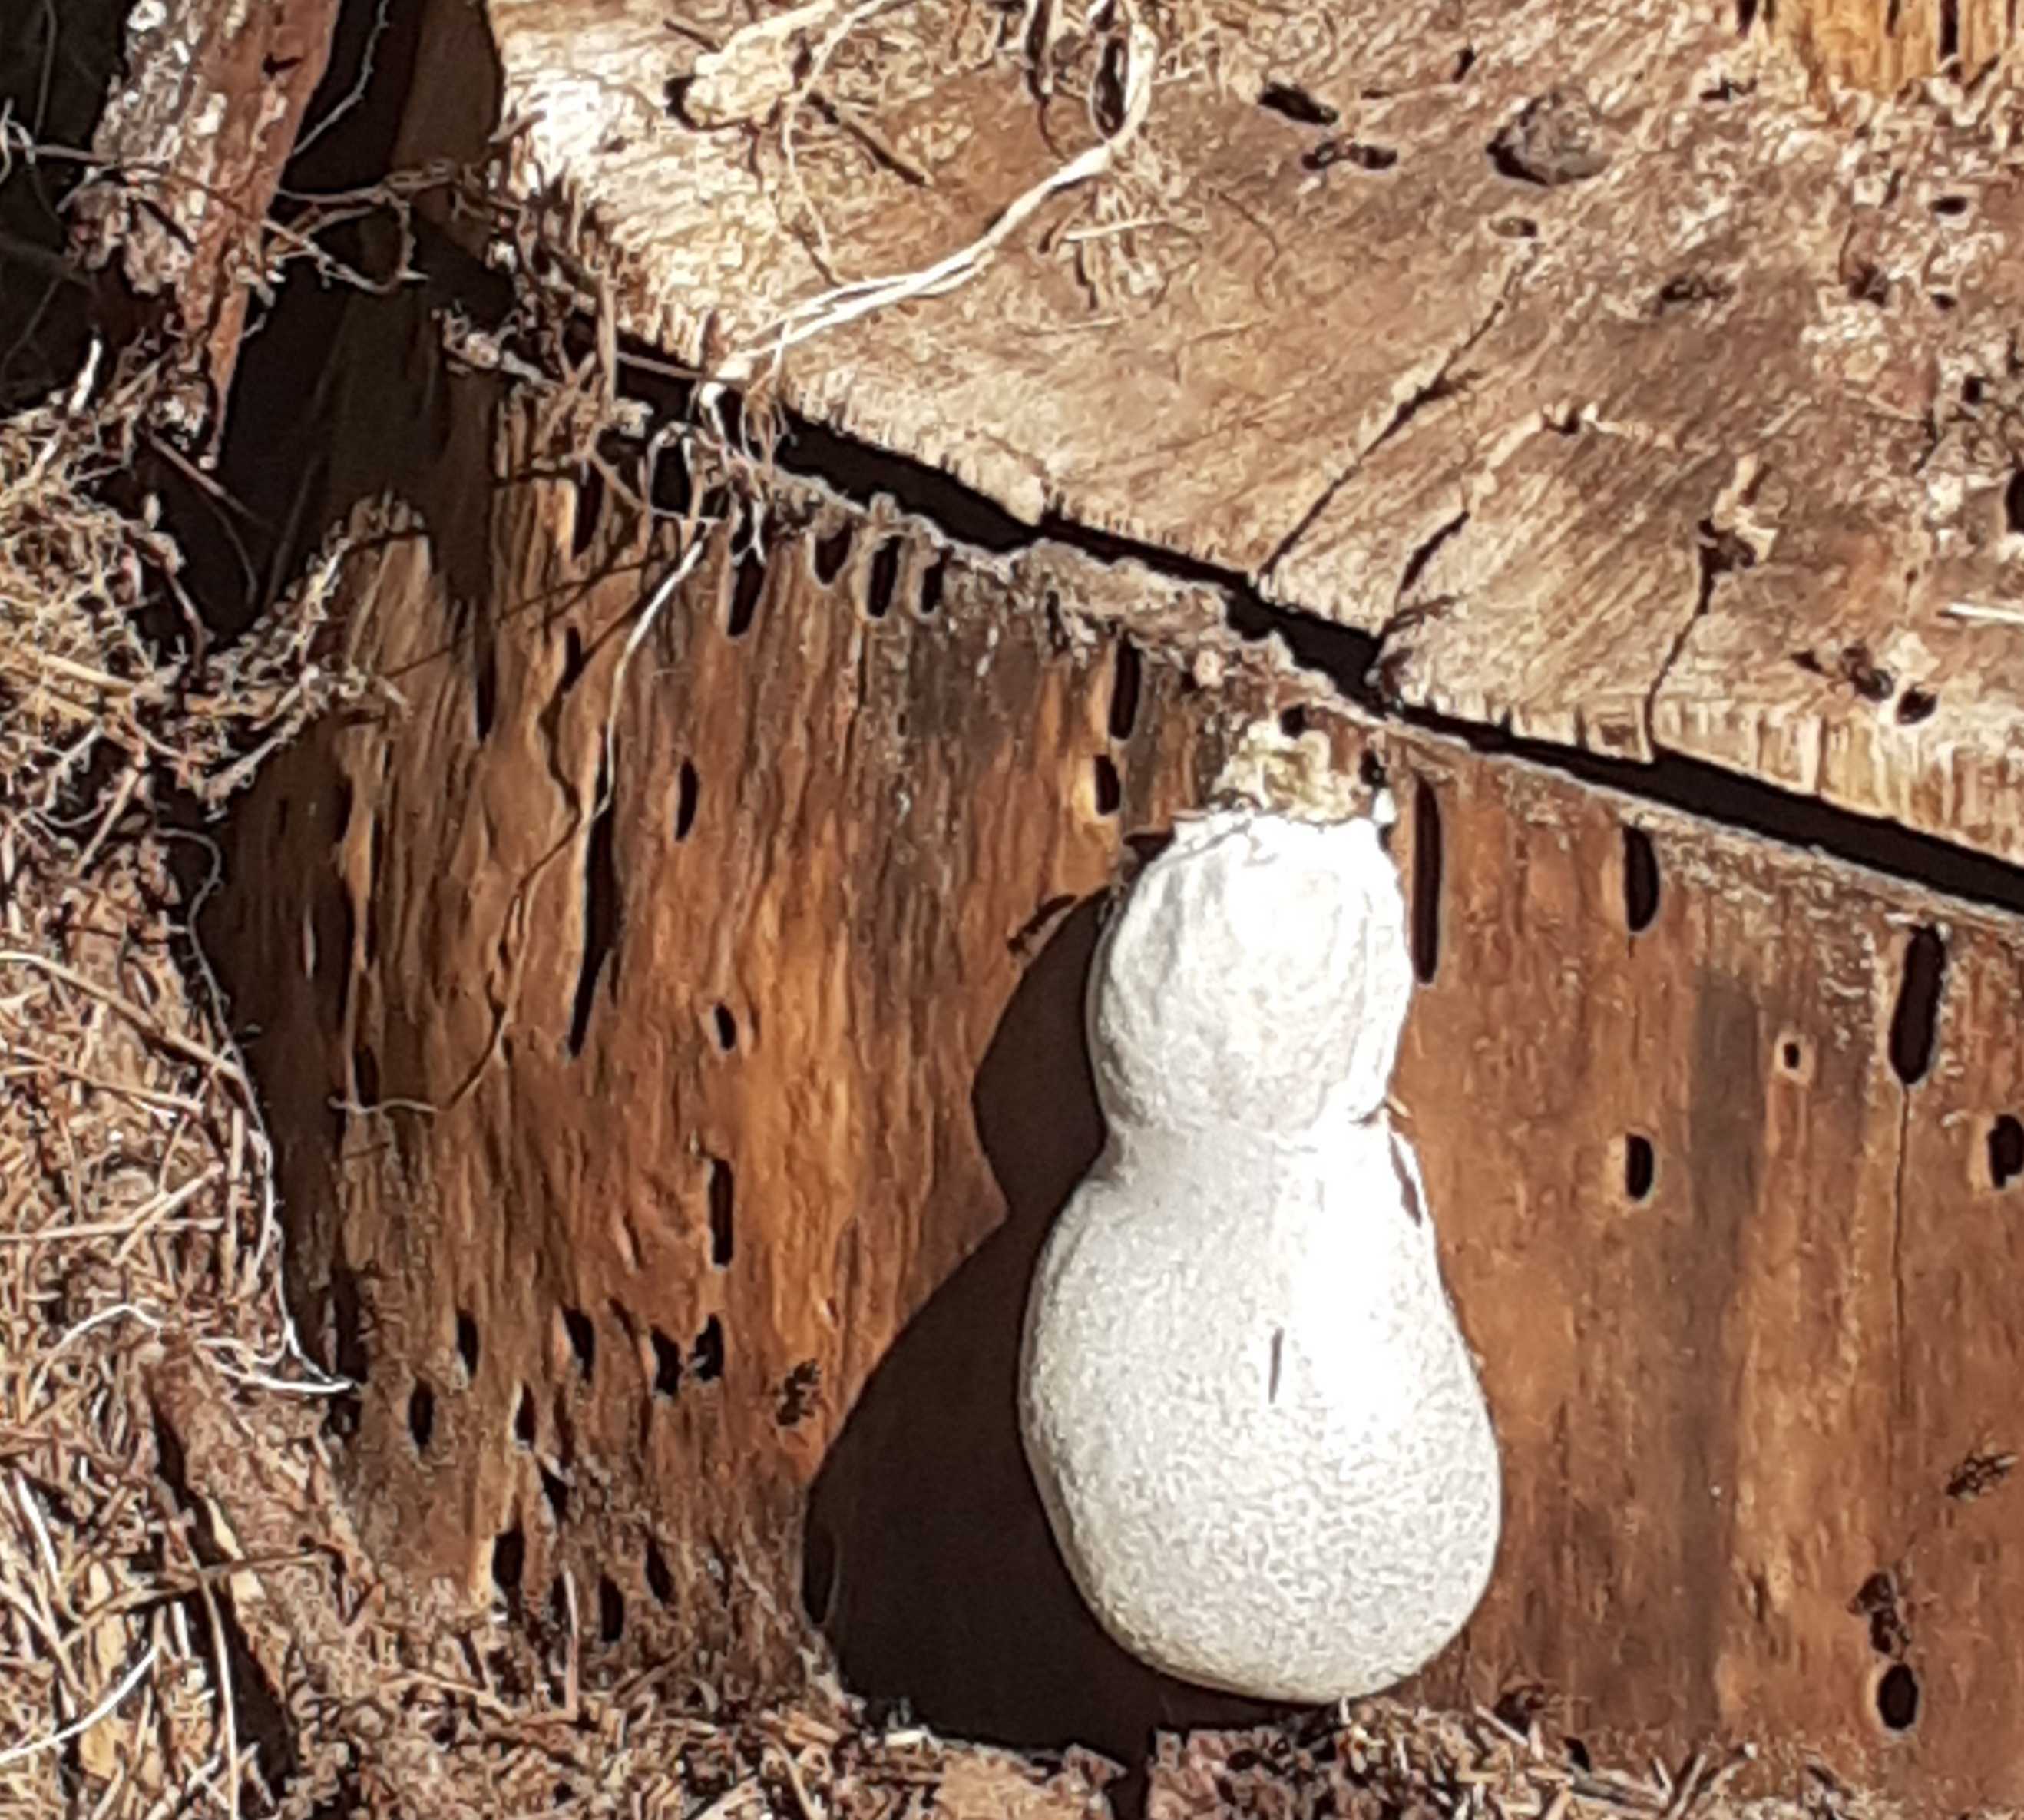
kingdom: Protozoa
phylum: Mycetozoa
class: Myxomycetes
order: Cribrariales
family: Tubiferaceae
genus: Reticularia
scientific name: Reticularia lycoperdon
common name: skinnende støvpude
